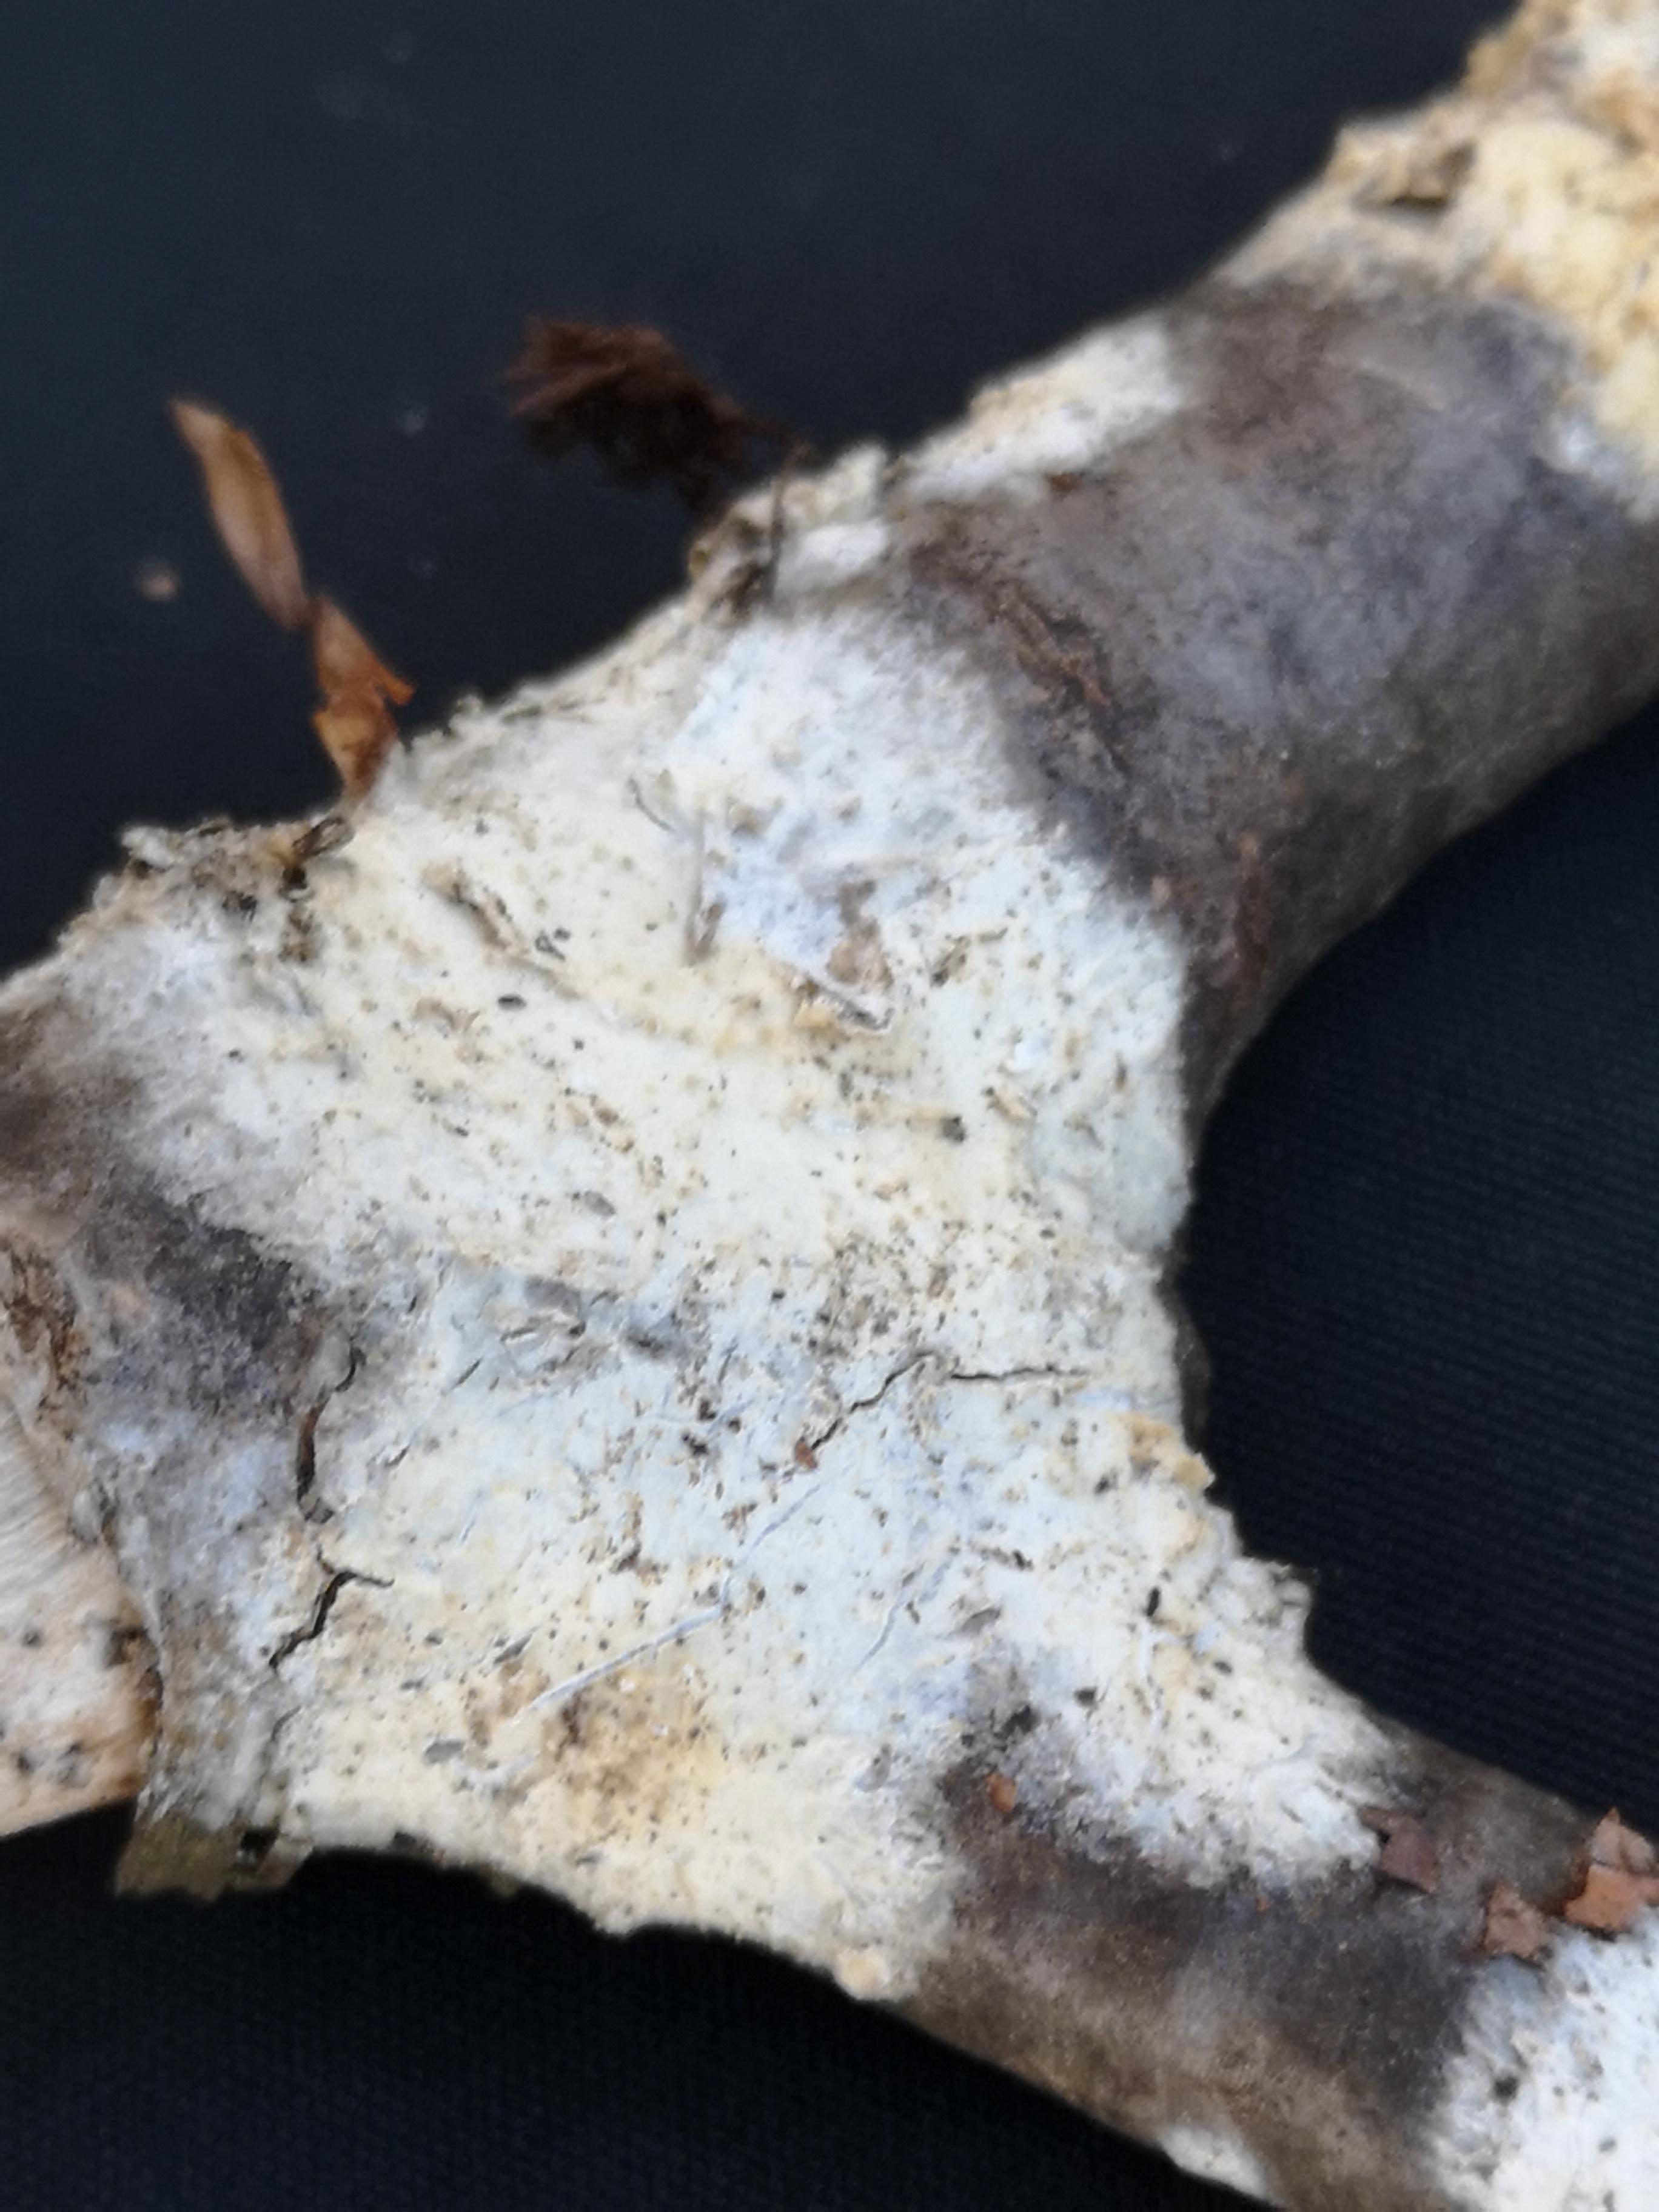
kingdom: Fungi
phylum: Basidiomycota
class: Agaricomycetes
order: Hymenochaetales
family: Schizoporaceae
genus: Xylodon
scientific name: Xylodon radula
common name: grovtandet kalkskind
